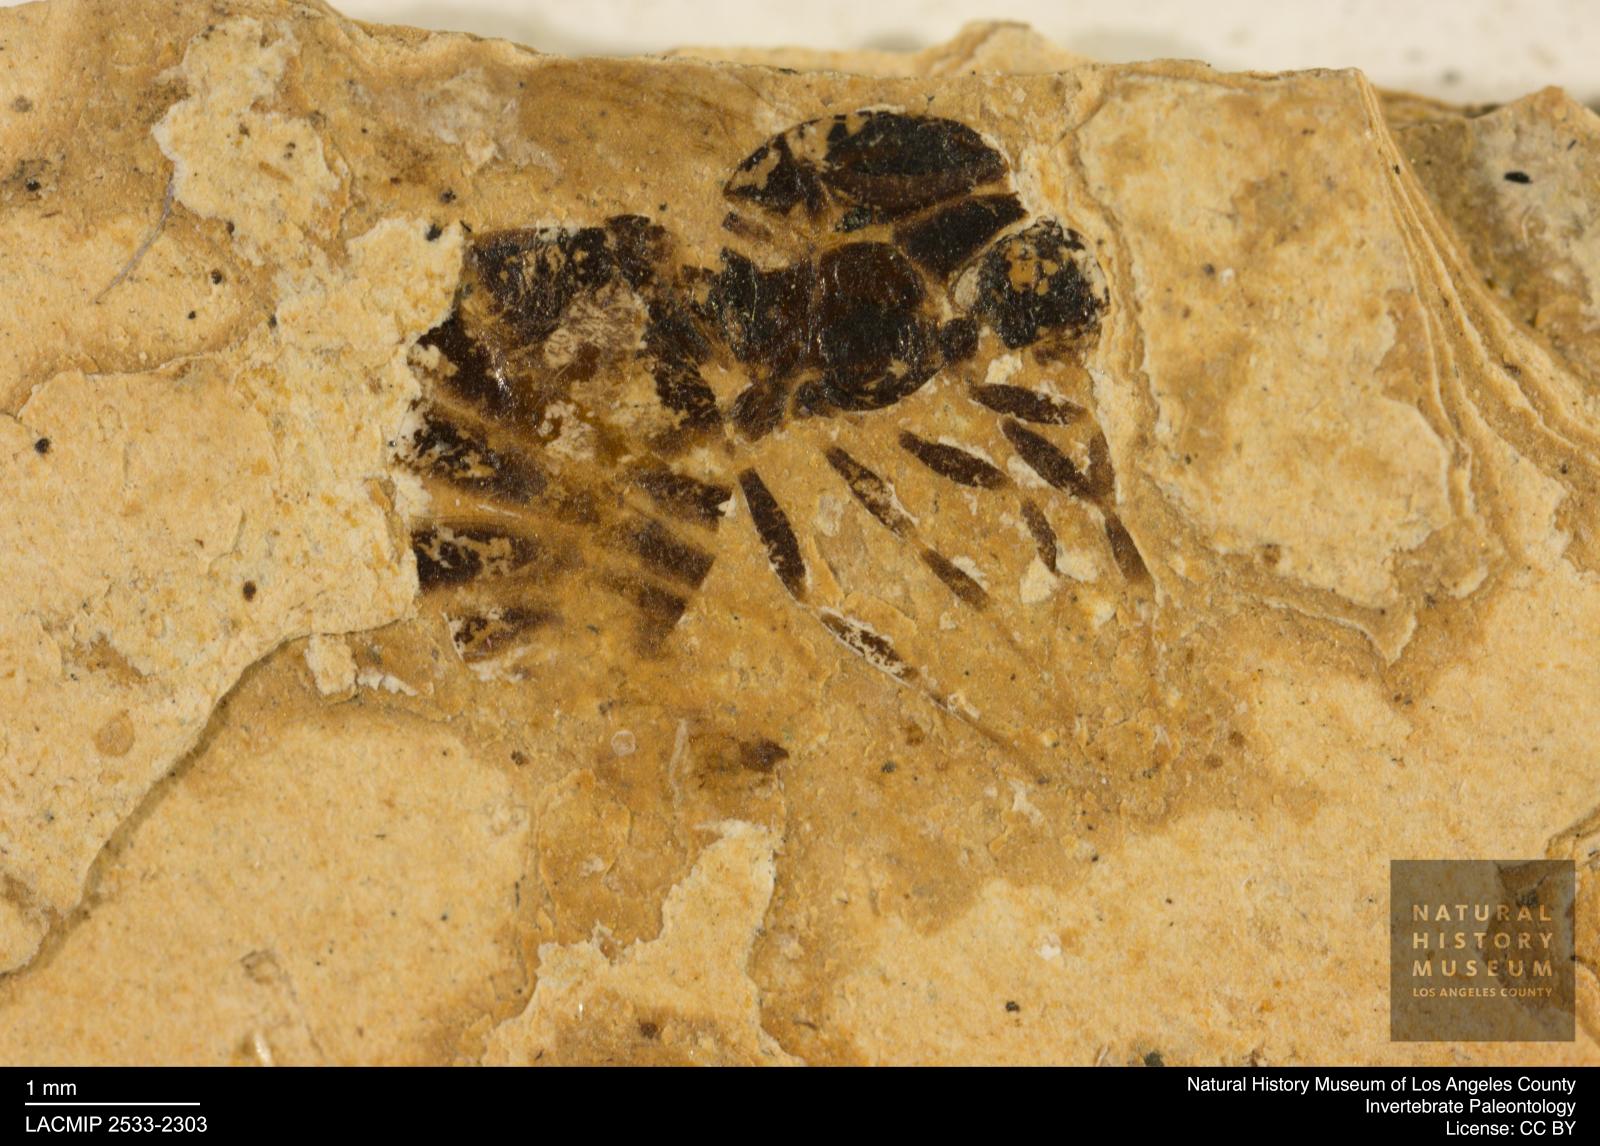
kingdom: Animalia
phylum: Arthropoda
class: Insecta
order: Hymenoptera
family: Formicidae
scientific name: Formicidae
